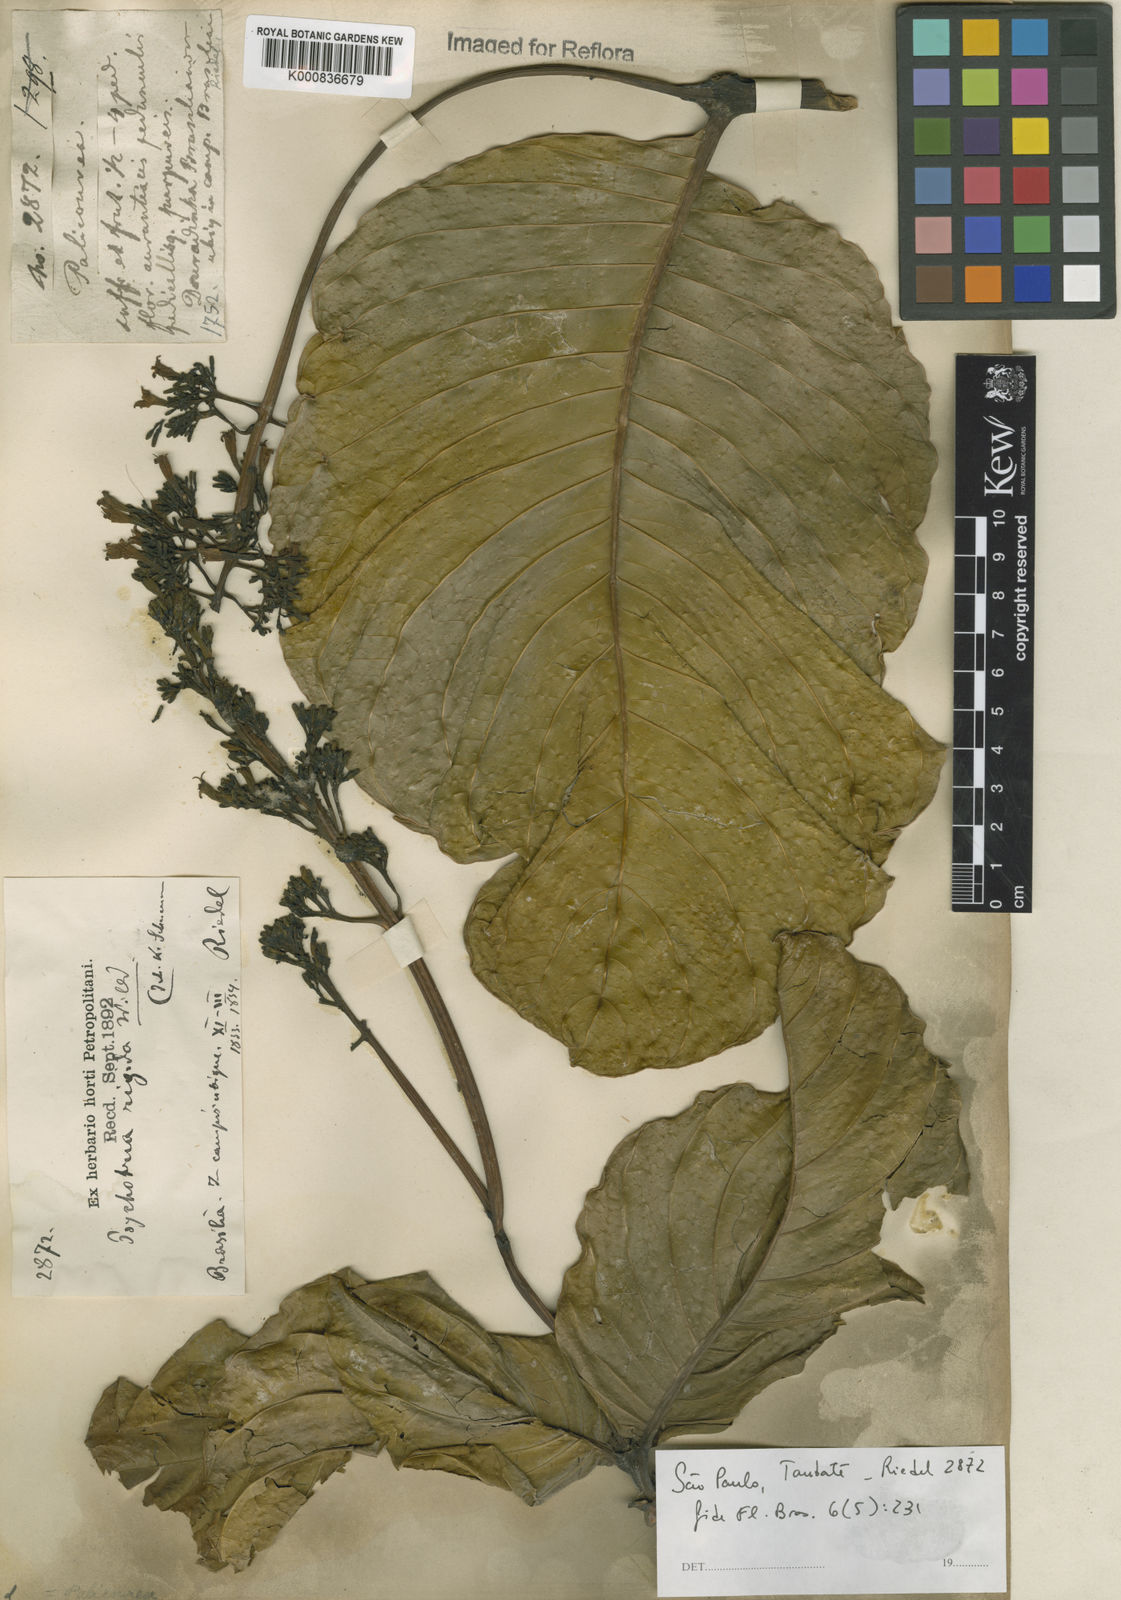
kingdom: Plantae
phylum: Tracheophyta
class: Magnoliopsida
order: Gentianales
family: Rubiaceae
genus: Palicourea
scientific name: Palicourea rigida
